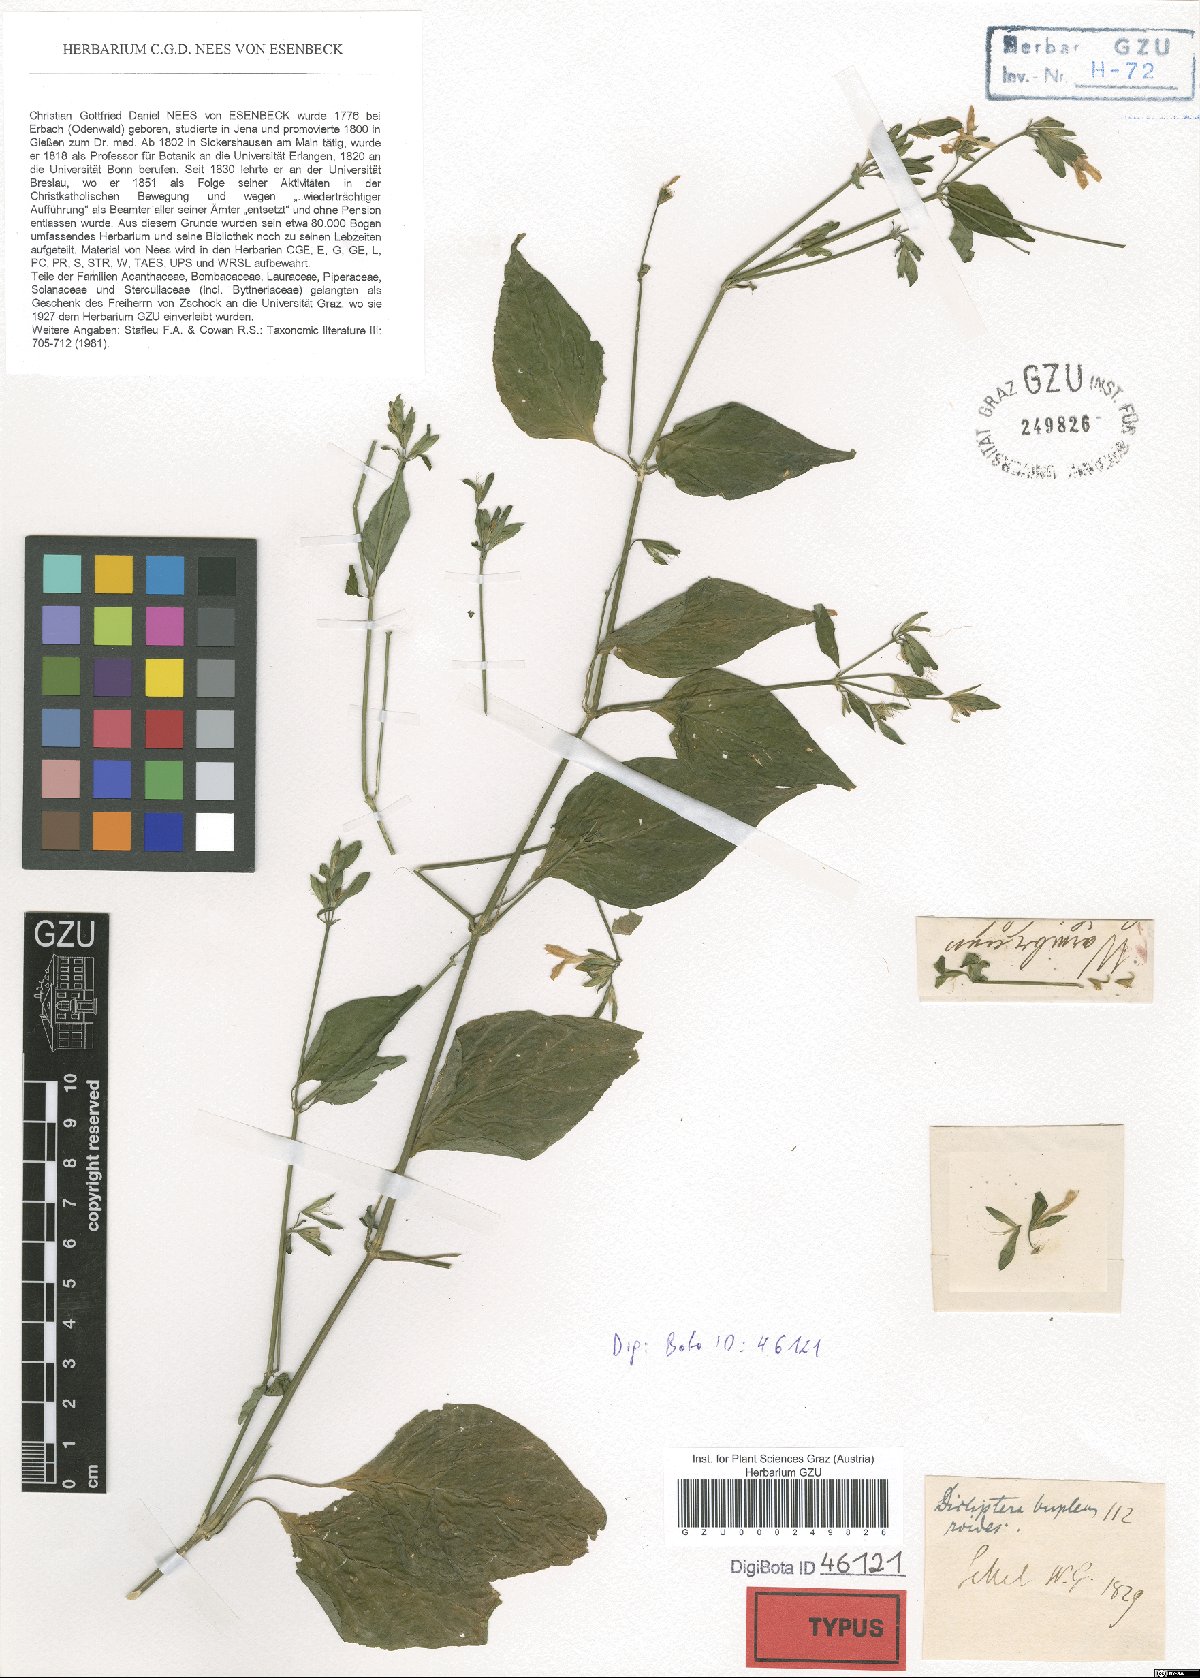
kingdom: Plantae
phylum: Tracheophyta
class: Magnoliopsida
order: Lamiales
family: Acanthaceae
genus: Dicliptera
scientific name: Dicliptera bupleuroides
